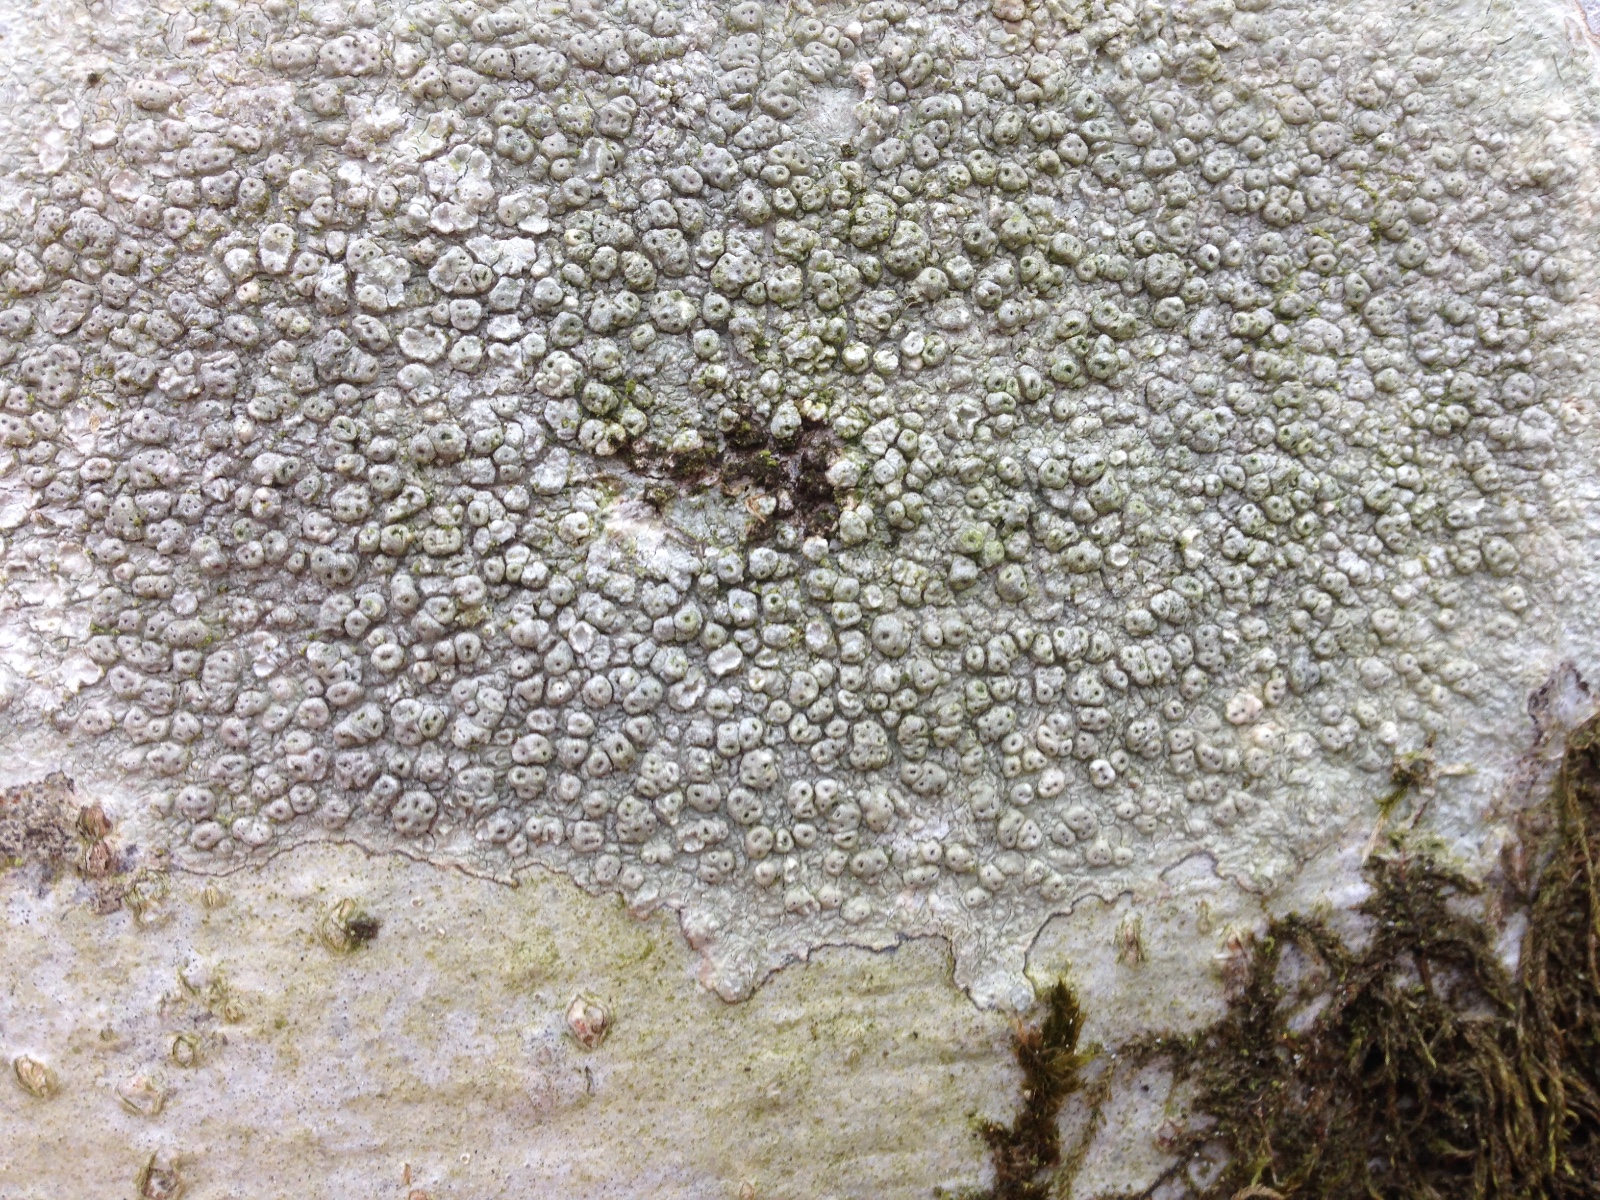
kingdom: Fungi
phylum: Ascomycota
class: Lecanoromycetes
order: Pertusariales
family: Pertusariaceae
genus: Pertusaria
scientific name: Pertusaria pertusa
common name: almindelig prikvortelav
